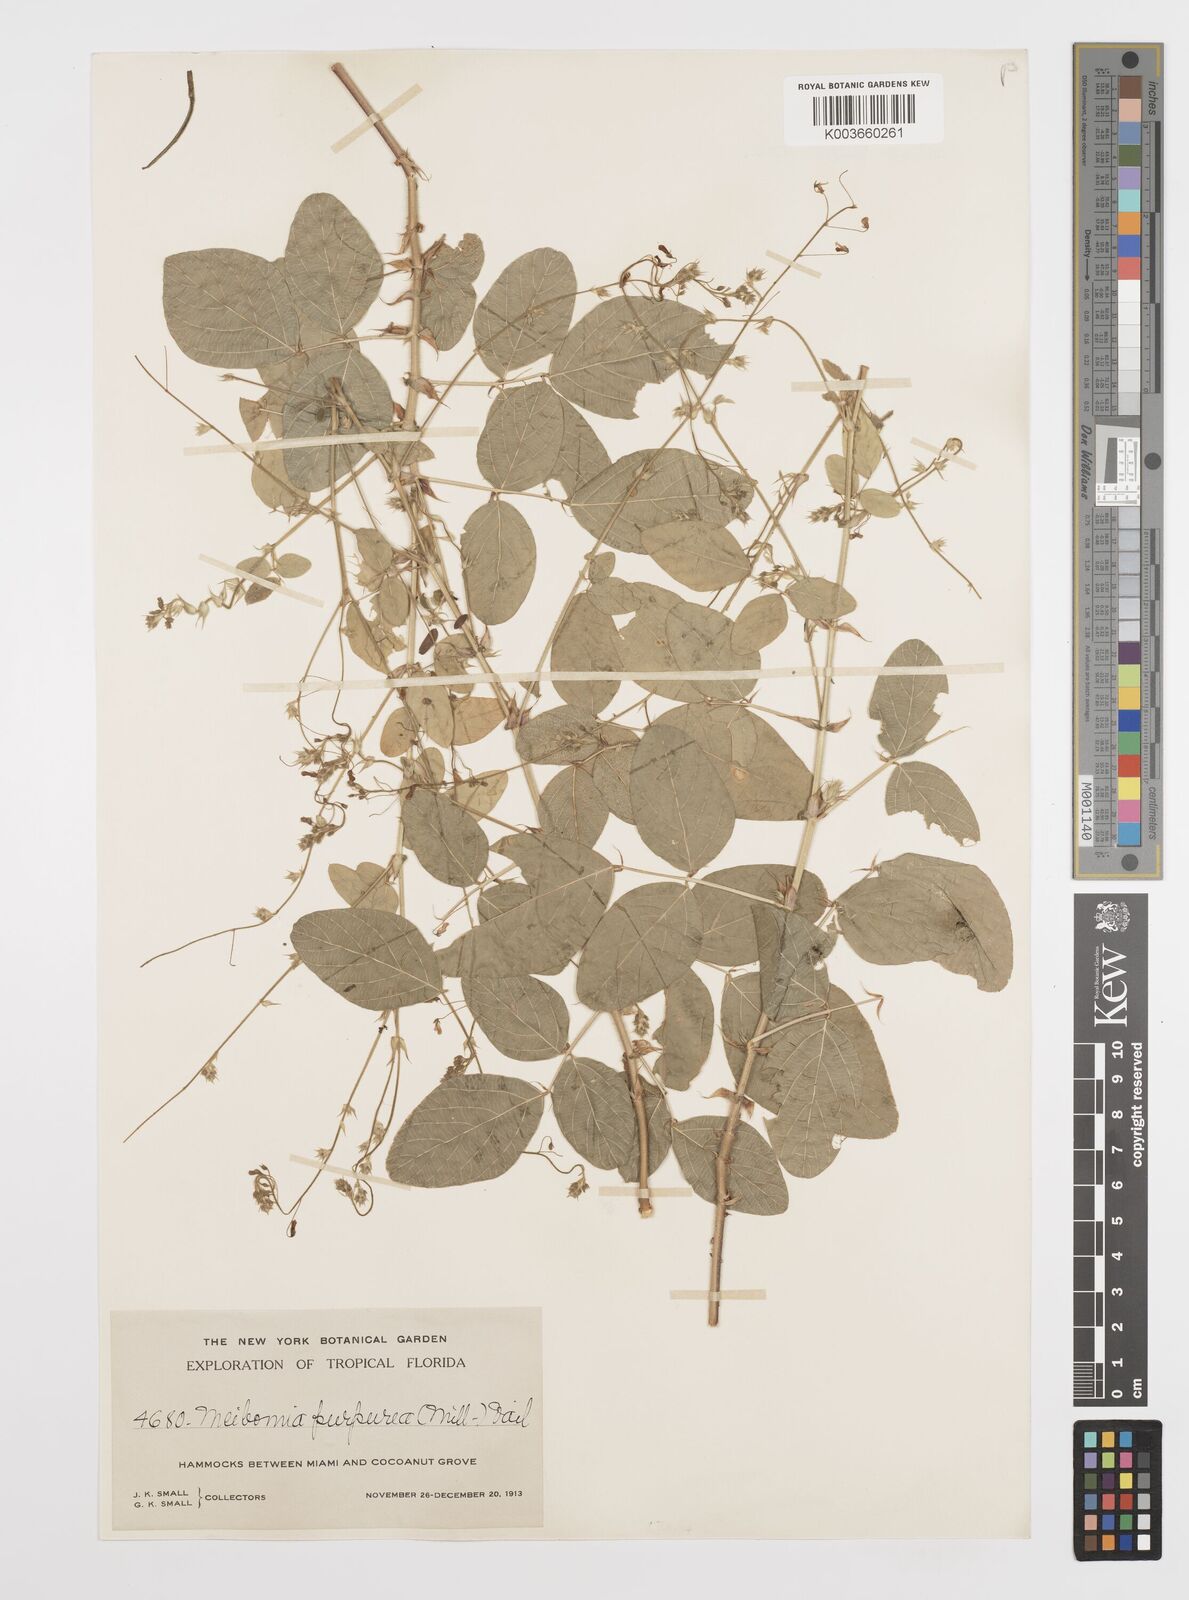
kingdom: Plantae
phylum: Tracheophyta
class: Magnoliopsida
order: Fabales
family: Fabaceae
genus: Desmodium
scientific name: Desmodium tortuosum
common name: Dixie ticktrefoil
